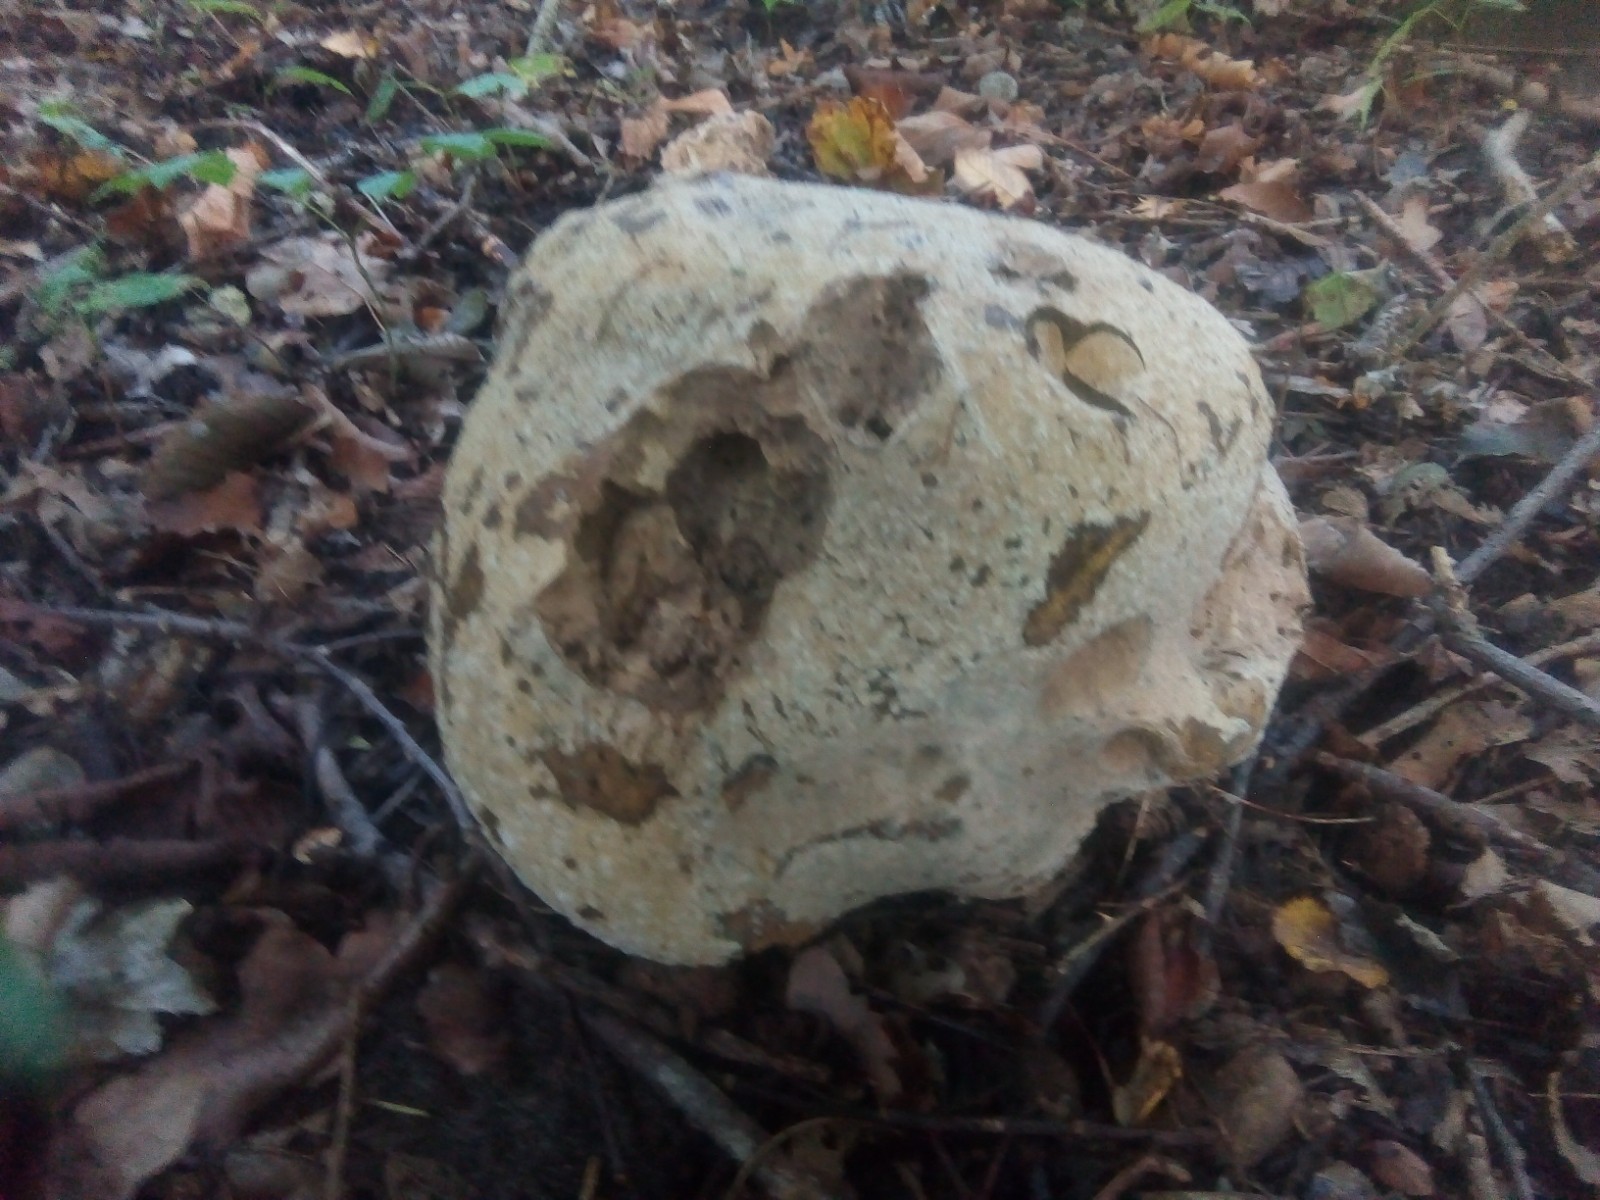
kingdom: Fungi
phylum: Basidiomycota
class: Agaricomycetes
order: Agaricales
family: Lycoperdaceae
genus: Calvatia
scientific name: Calvatia gigantea
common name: kæmpestøvbold
